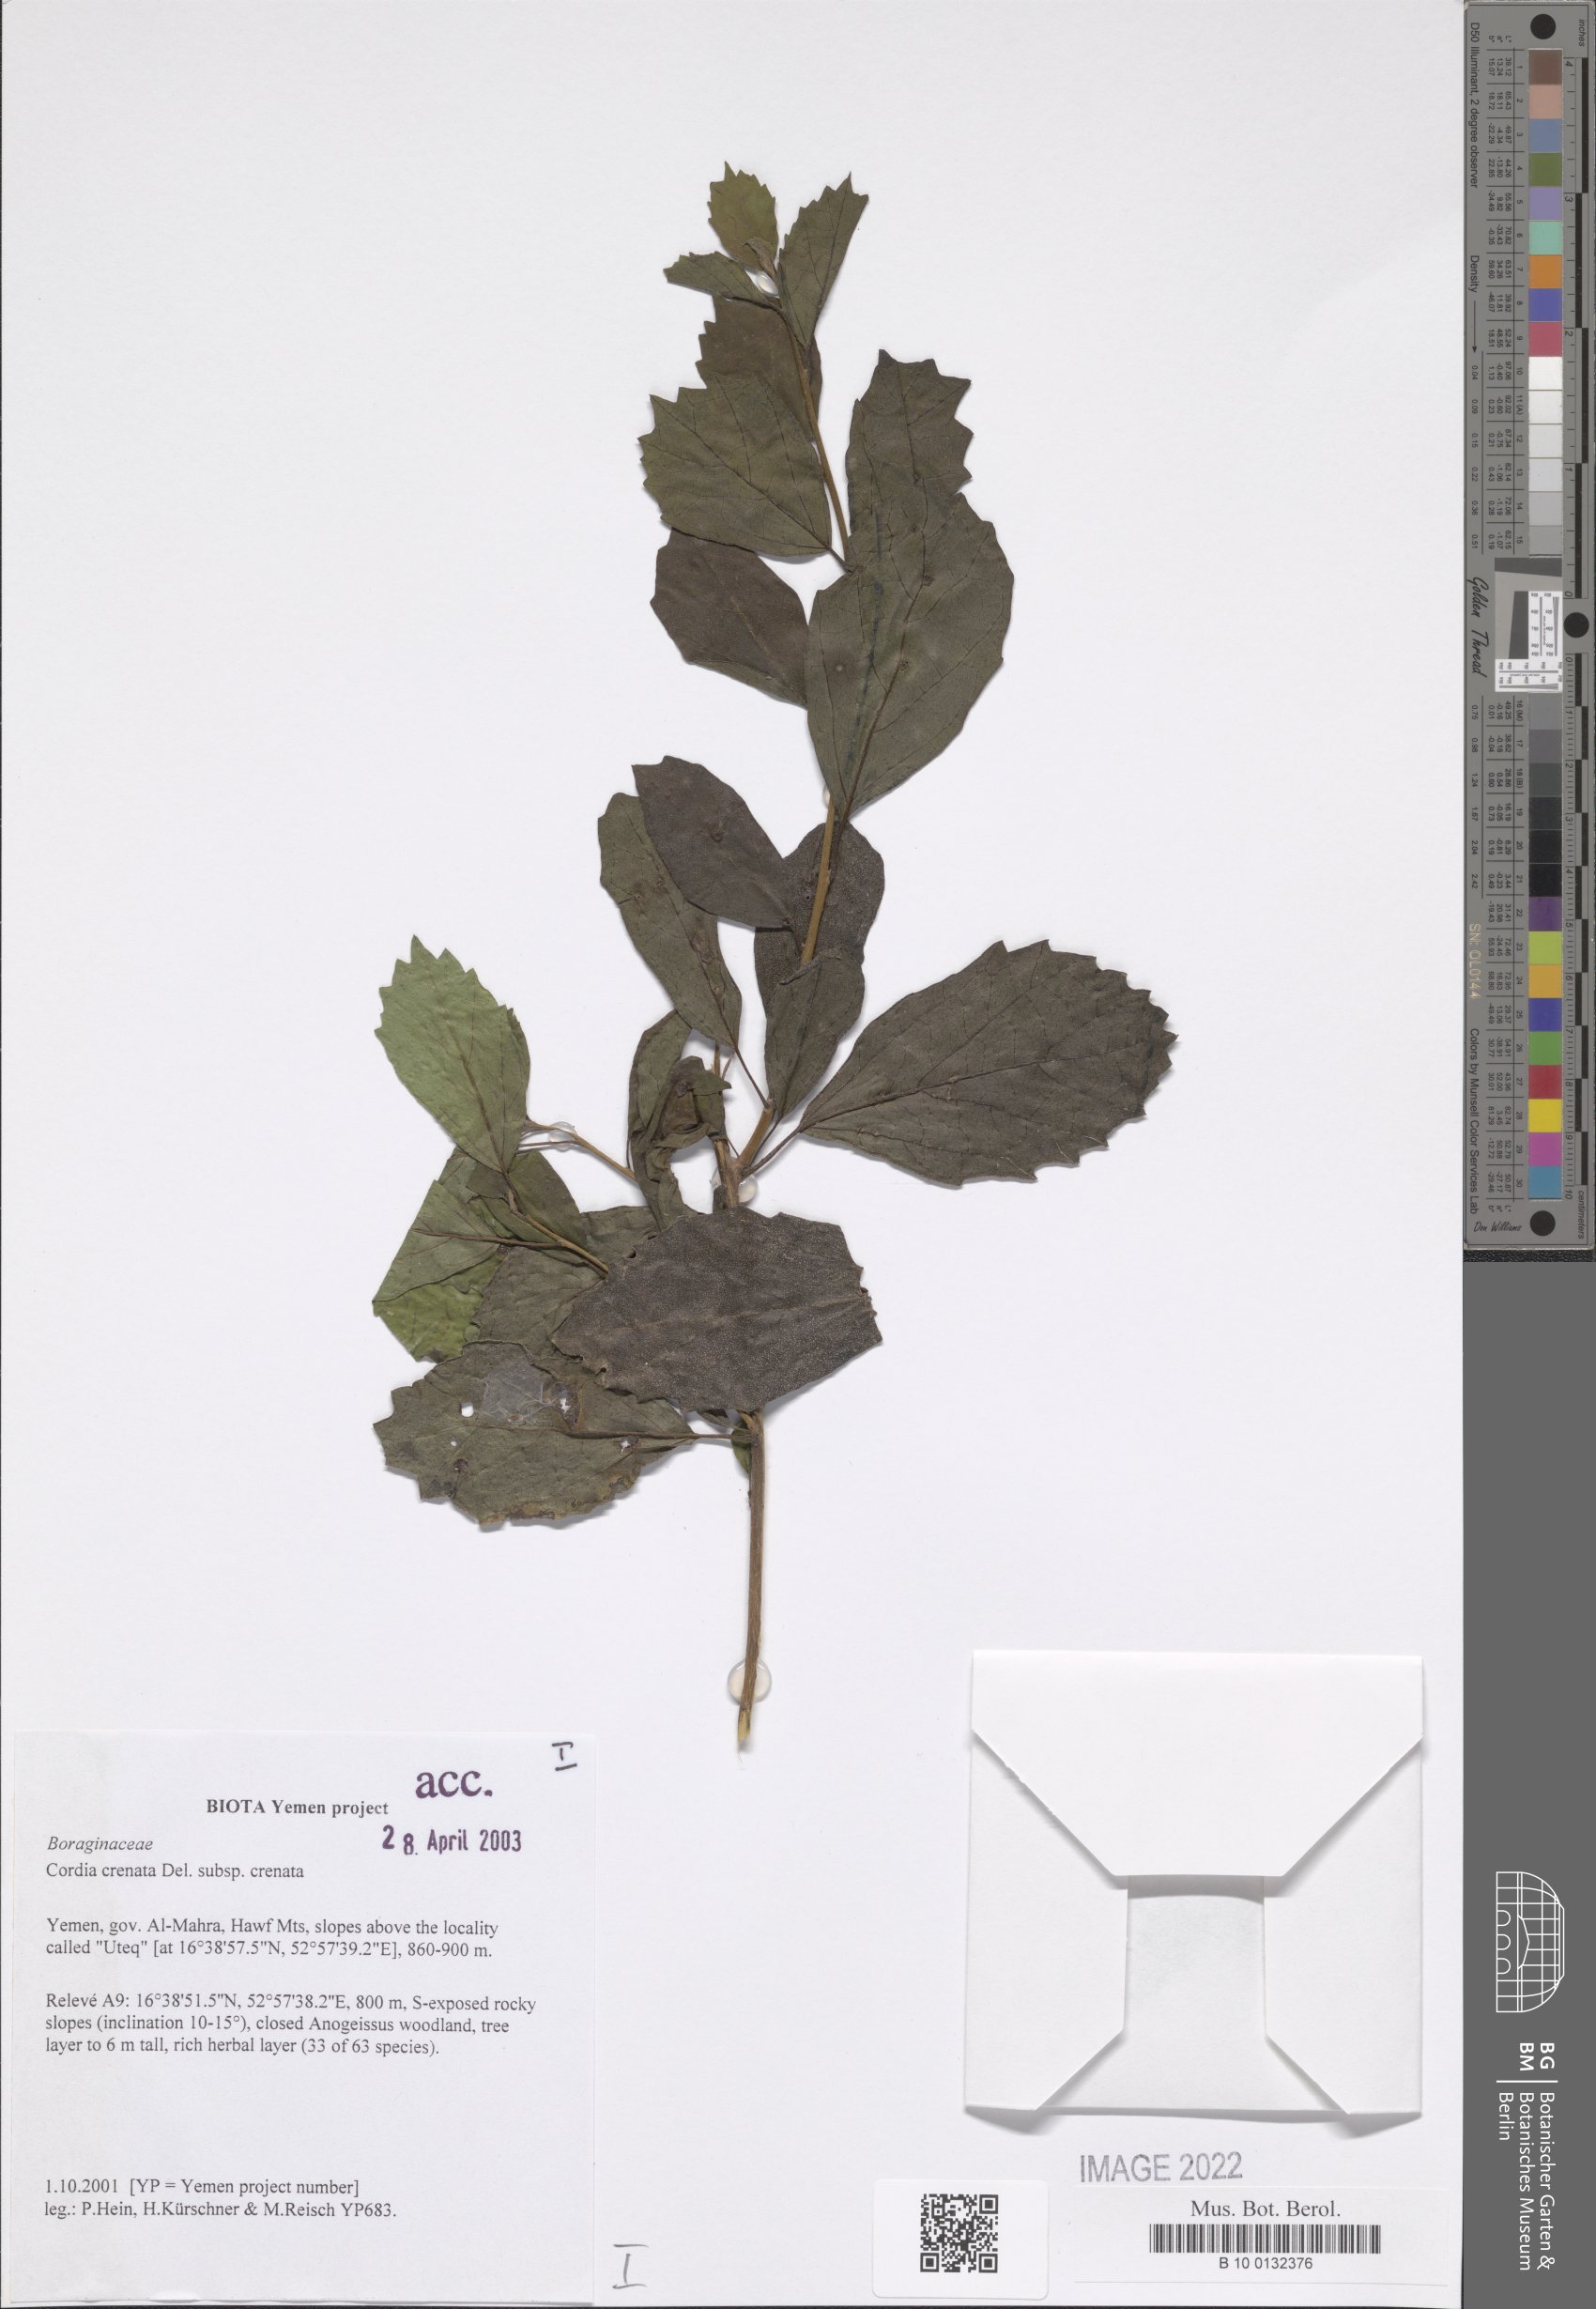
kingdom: Plantae
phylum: Tracheophyta
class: Magnoliopsida
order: Boraginales
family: Cordiaceae
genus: Cordia
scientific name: Cordia crenata
